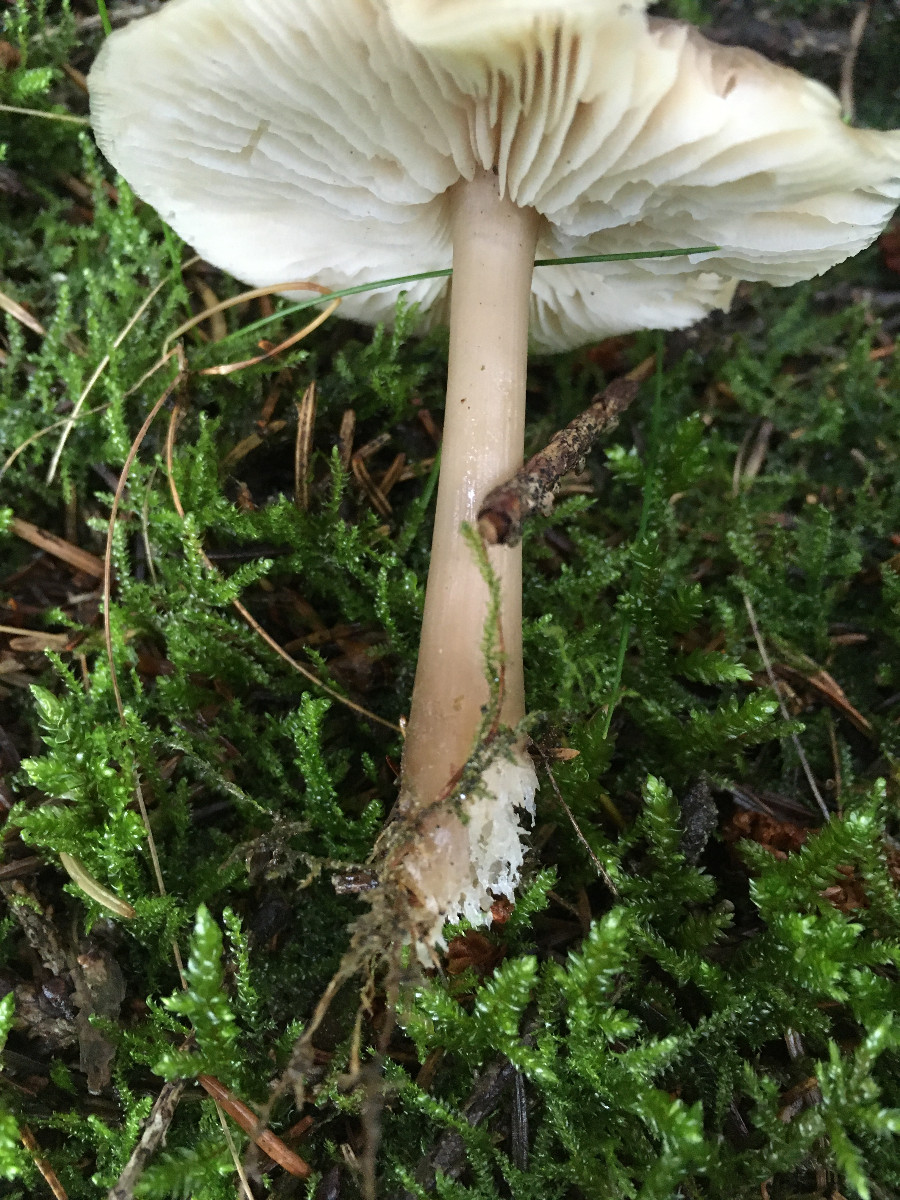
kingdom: Fungi
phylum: Basidiomycota
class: Agaricomycetes
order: Agaricales
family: Omphalotaceae
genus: Rhodocollybia
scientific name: Rhodocollybia asema
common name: horngrå fladhat
